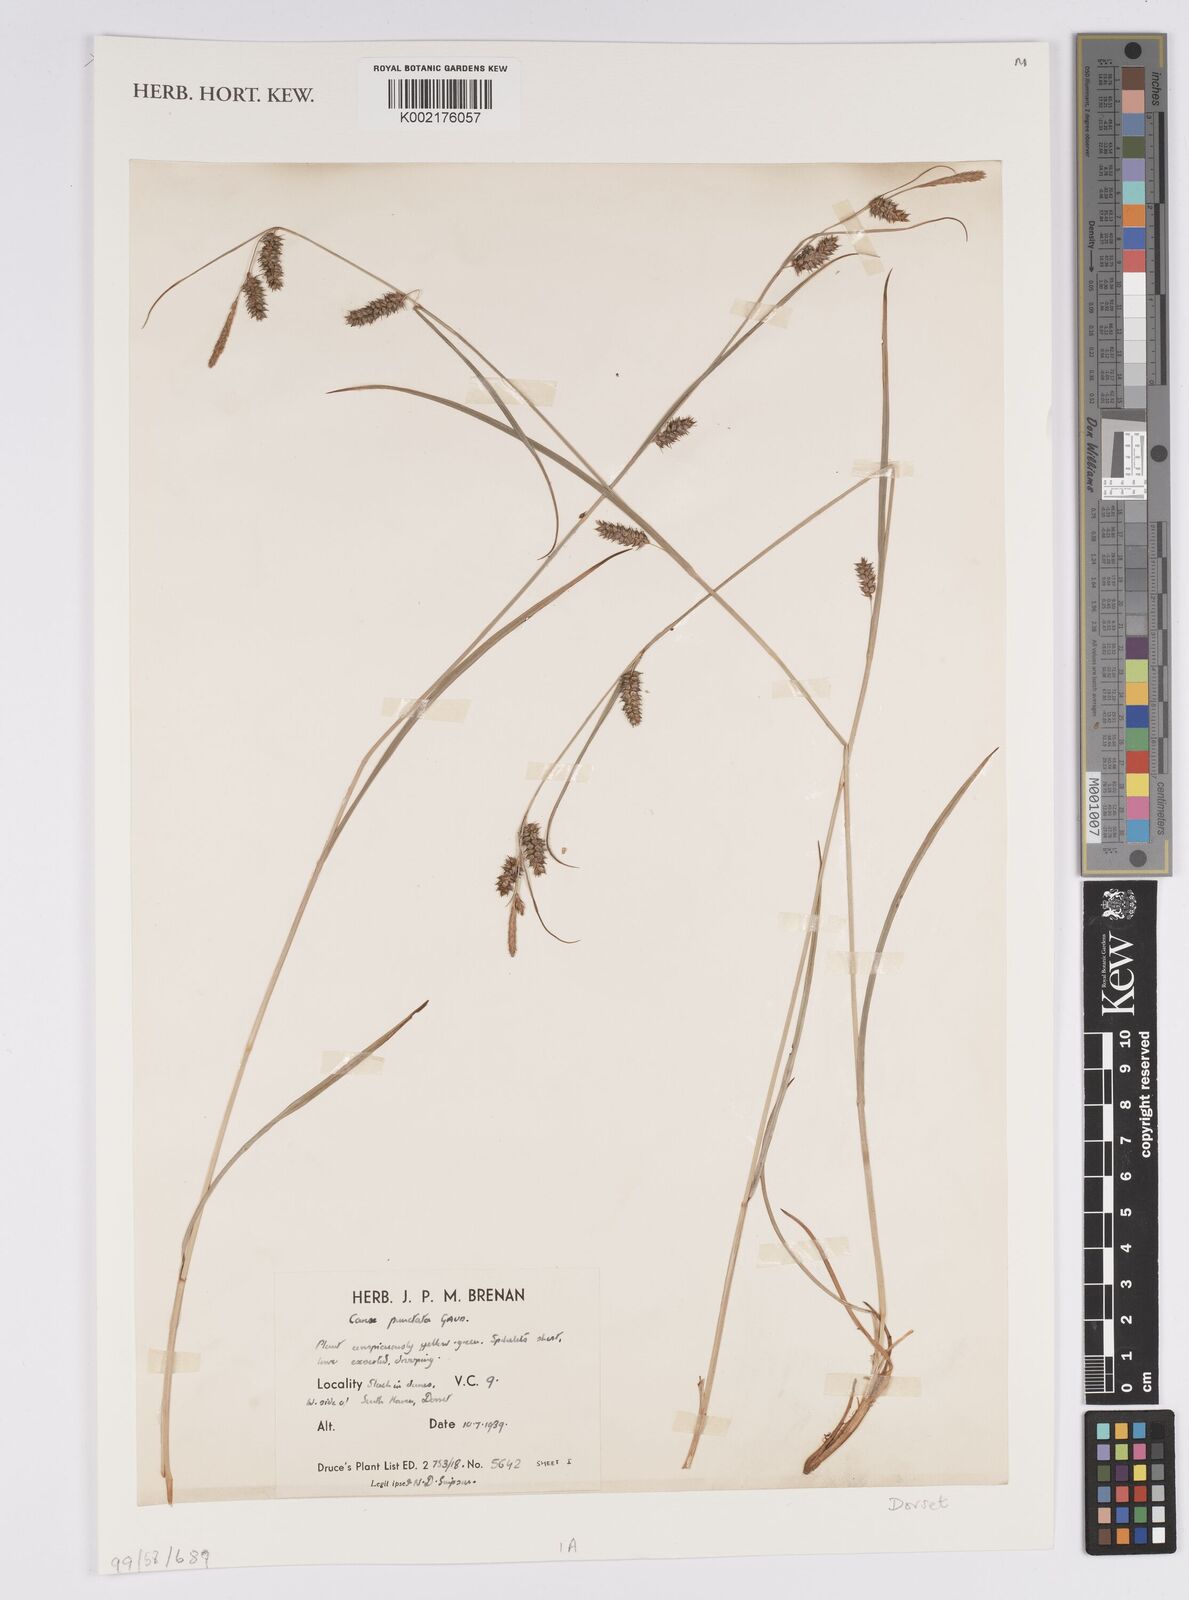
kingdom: Plantae
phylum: Tracheophyta
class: Liliopsida
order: Poales
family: Cyperaceae
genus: Carex
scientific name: Carex punctata
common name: Dotted sedge
